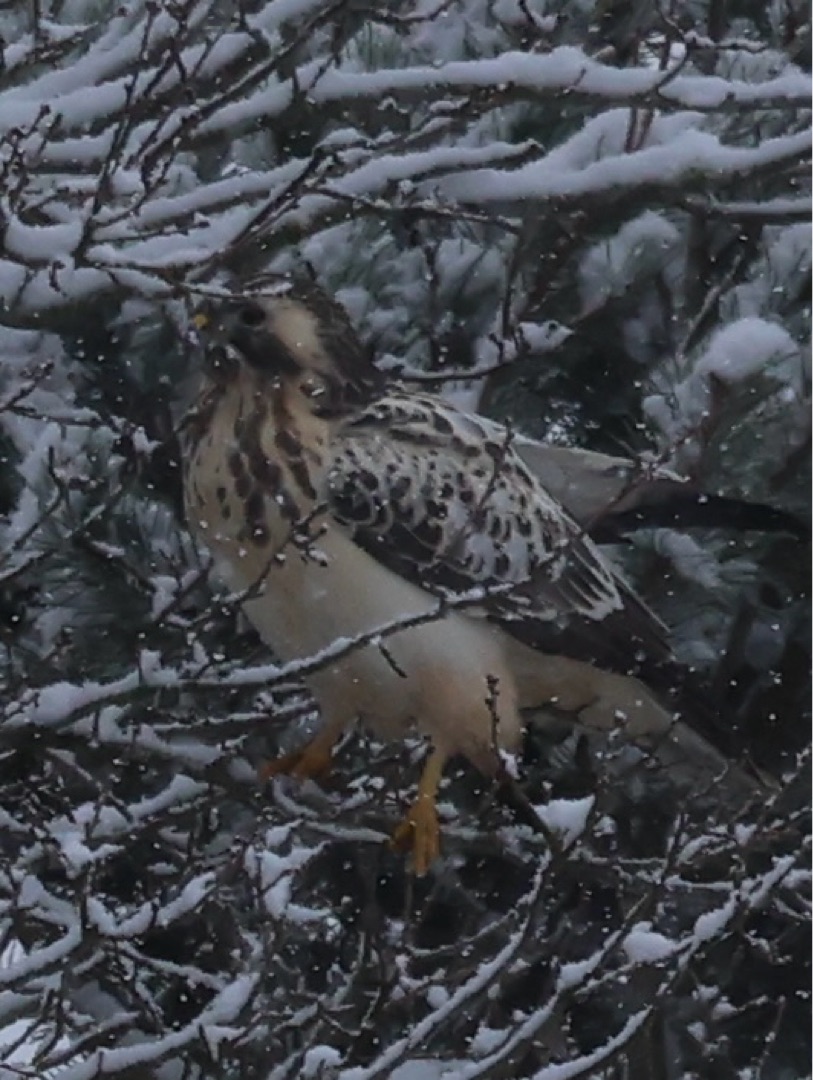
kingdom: Animalia
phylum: Chordata
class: Aves
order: Accipitriformes
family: Accipitridae
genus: Buteo
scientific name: Buteo buteo
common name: Musvåge
